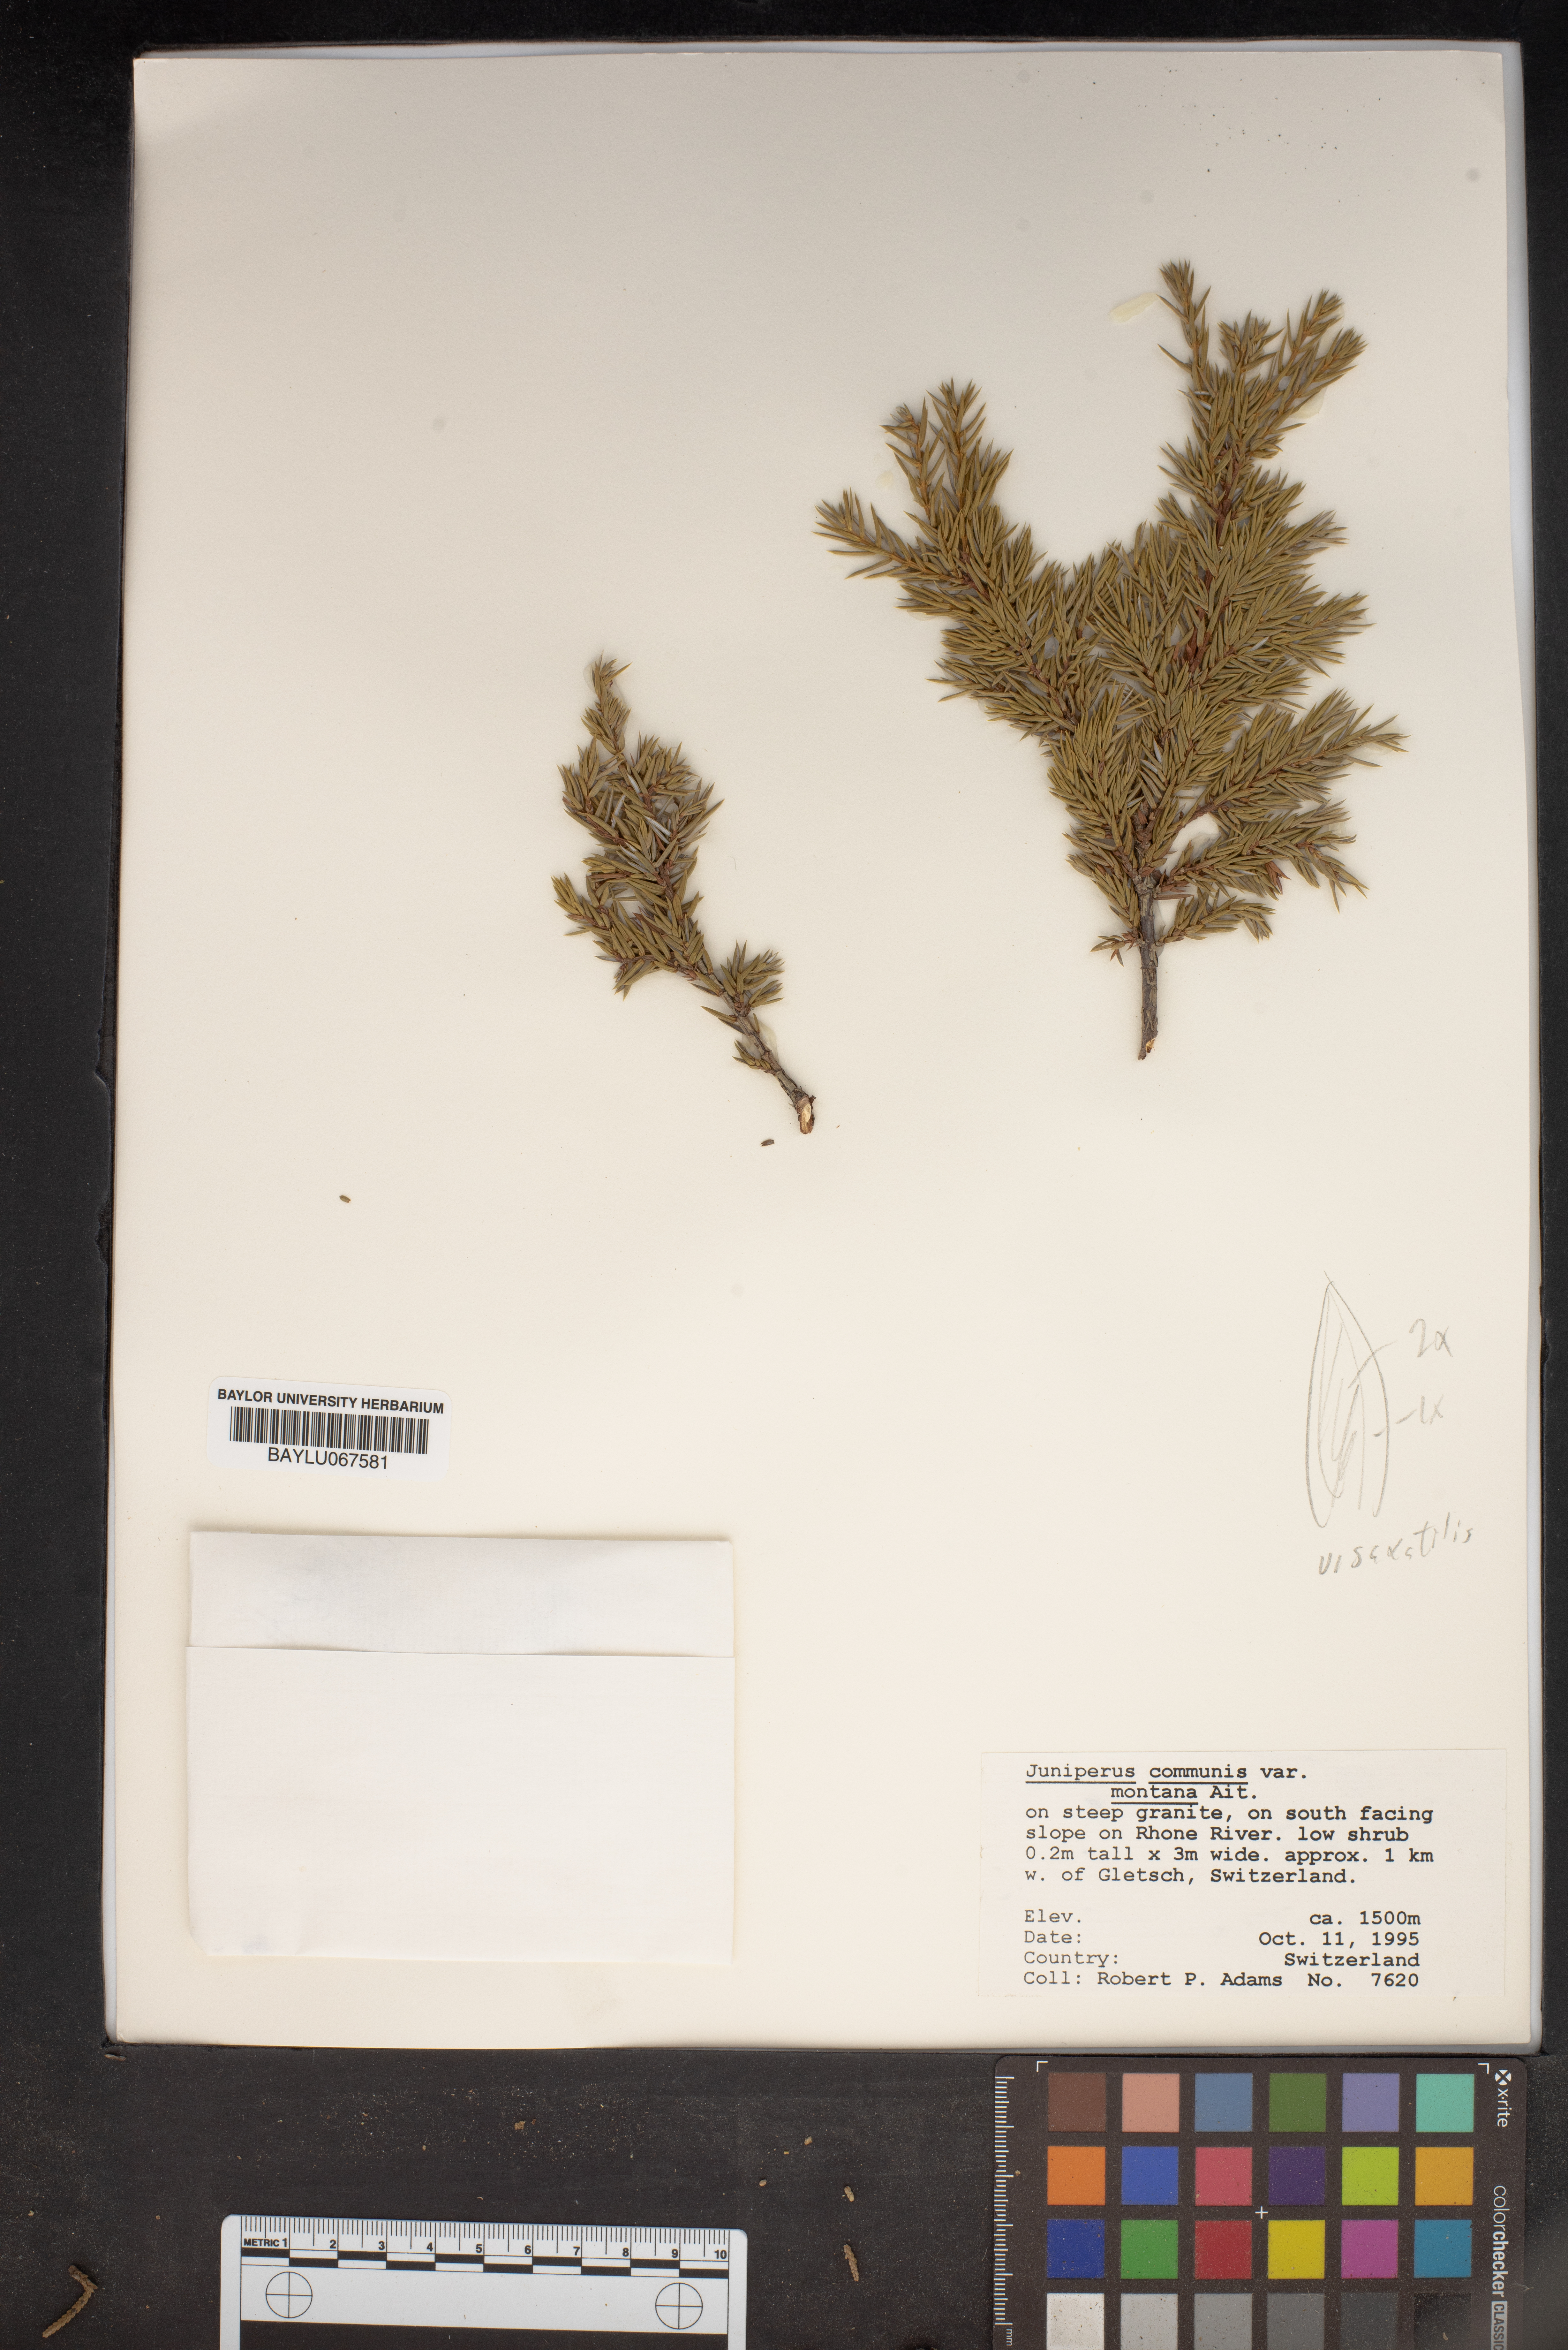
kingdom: Plantae
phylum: Tracheophyta
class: Pinopsida
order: Pinales
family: Cupressaceae
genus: Juniperus
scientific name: Juniperus communis
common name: Common juniper
